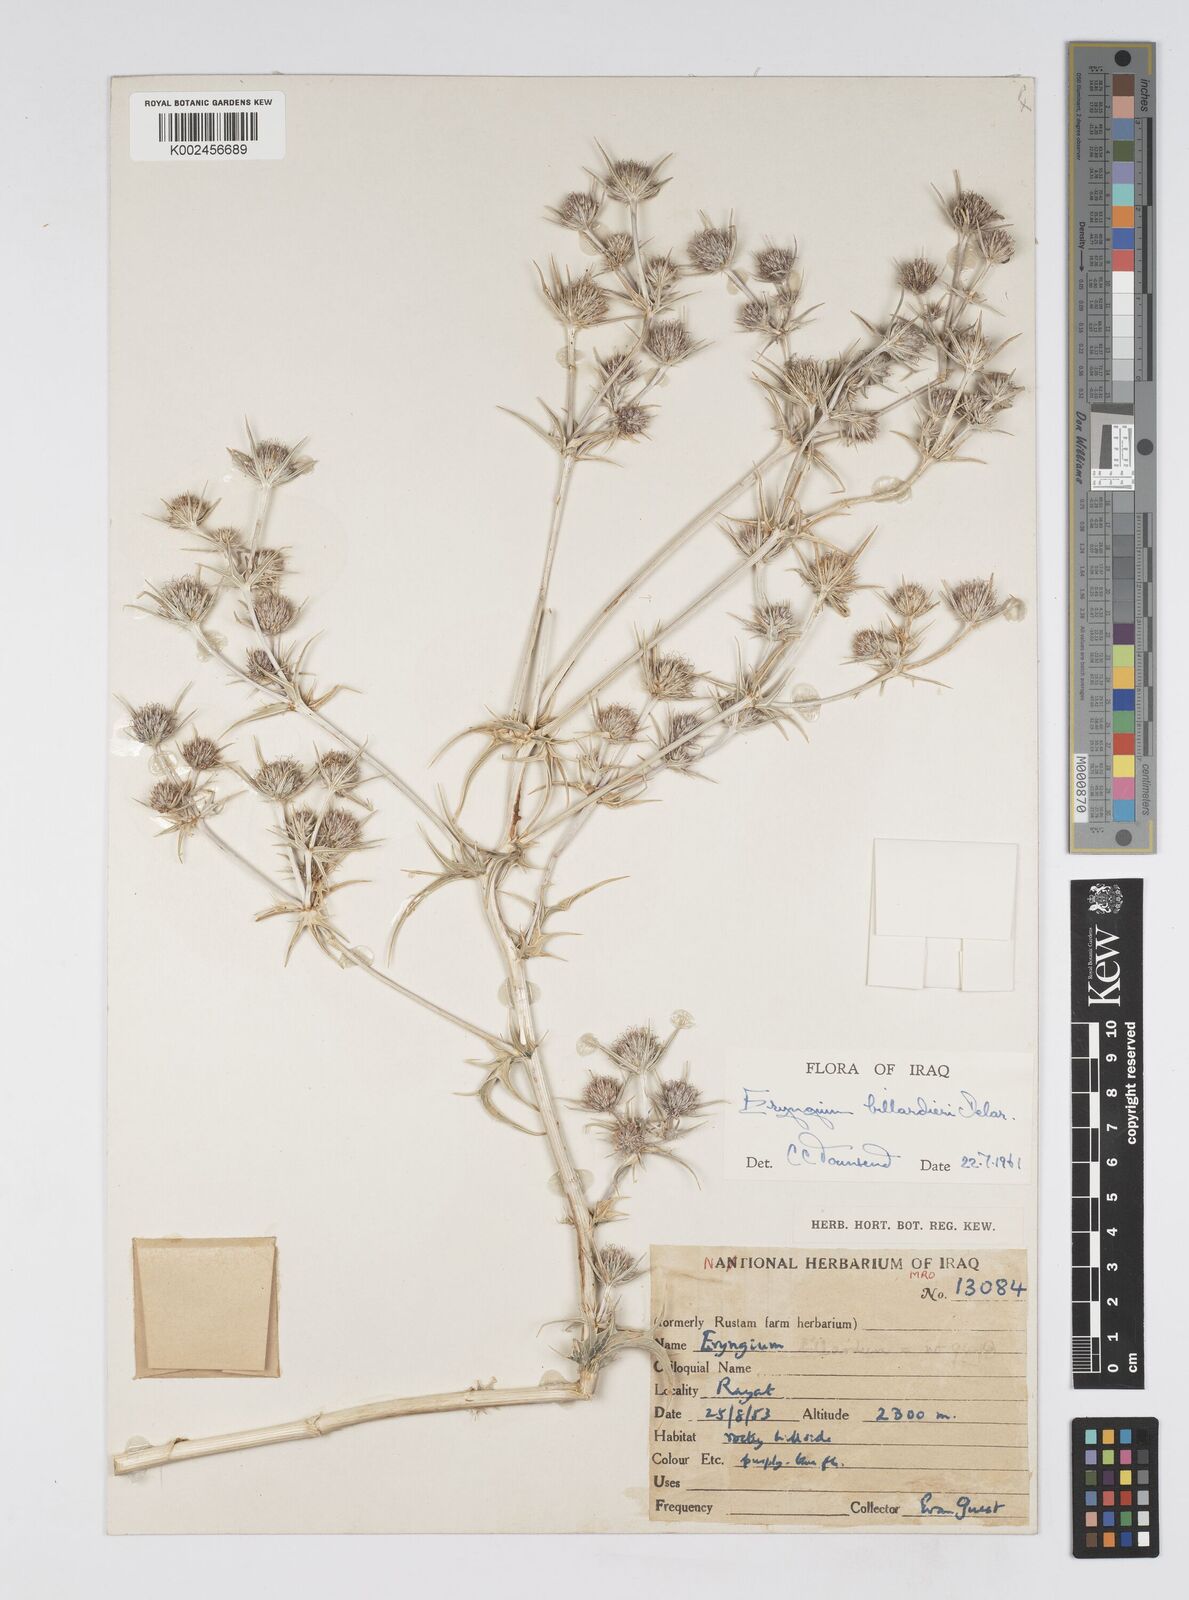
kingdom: Plantae
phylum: Tracheophyta
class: Magnoliopsida
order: Apiales
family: Apiaceae
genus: Eryngium
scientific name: Eryngium billardierei
